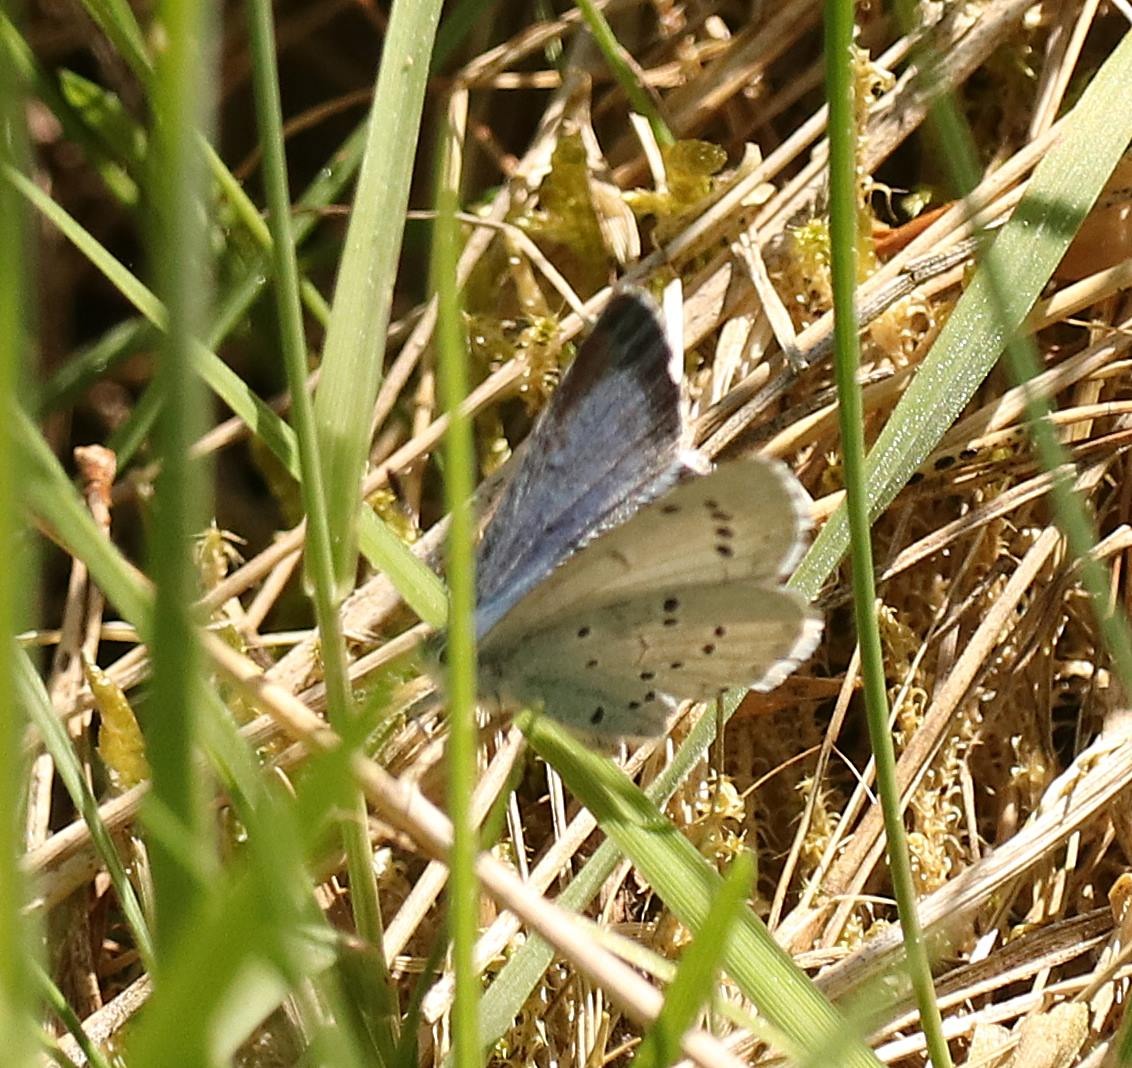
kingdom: Animalia
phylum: Arthropoda
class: Insecta
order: Lepidoptera
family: Lycaenidae
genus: Celastrina
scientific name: Celastrina argiolus
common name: Skovblåfugl
